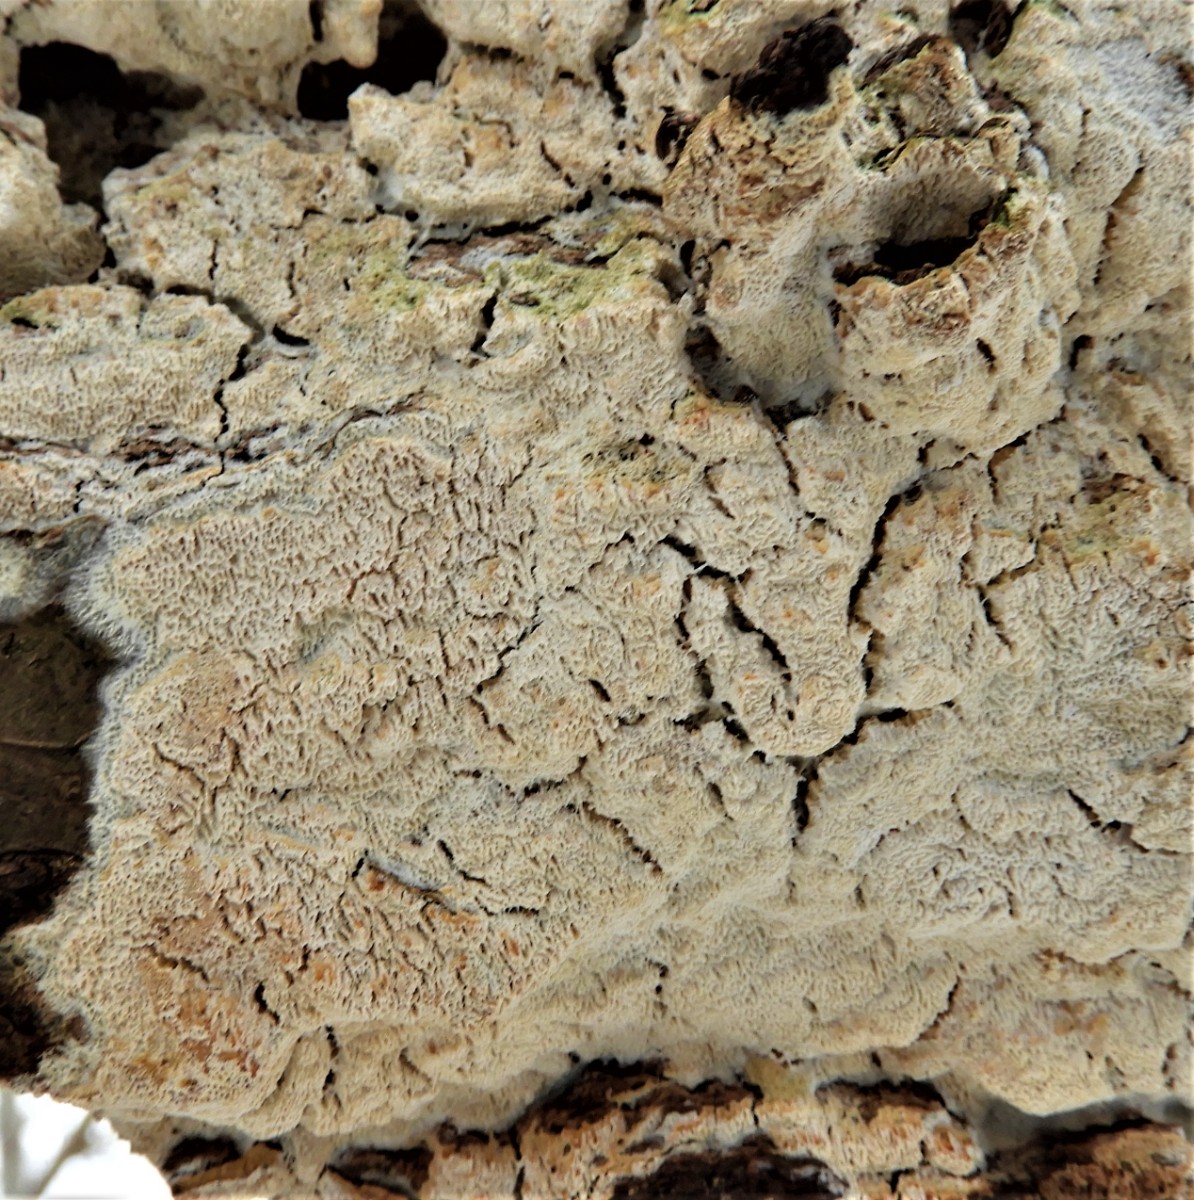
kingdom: Fungi
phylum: Basidiomycota
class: Agaricomycetes
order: Hymenochaetales
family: Schizoporaceae
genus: Xylodon
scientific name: Xylodon subtropicus
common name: labyrint-tandsvamp
